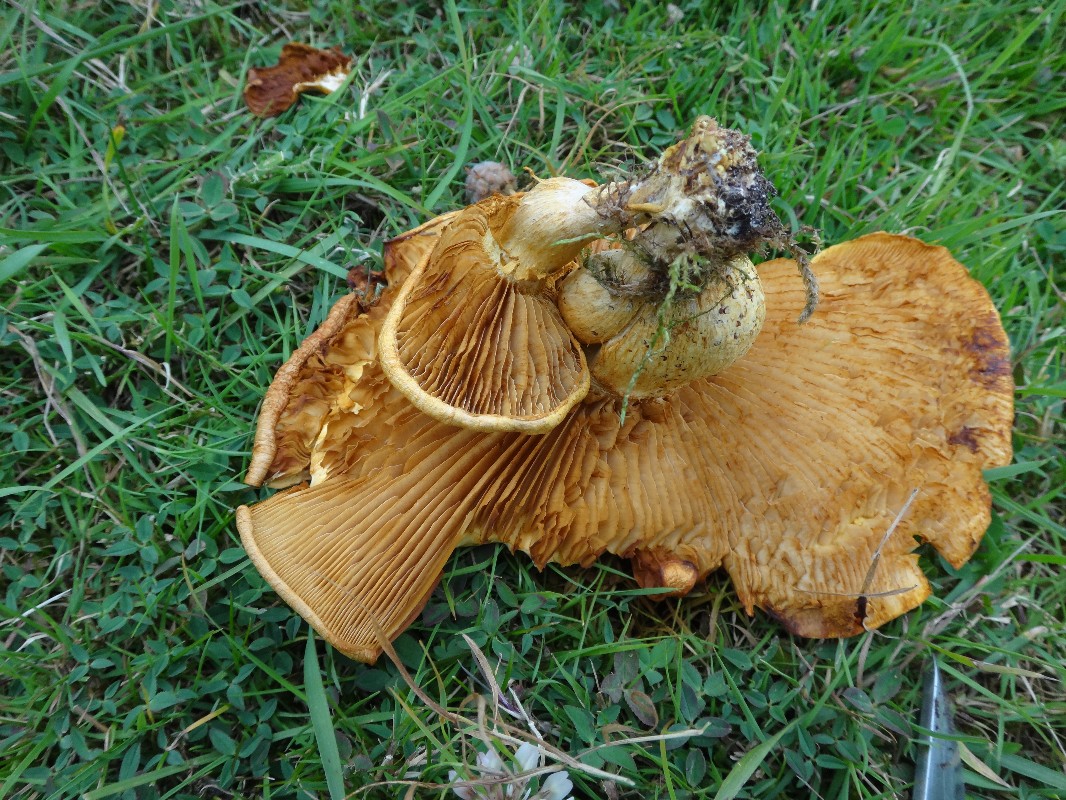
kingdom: Fungi
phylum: Basidiomycota
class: Agaricomycetes
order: Agaricales
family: Hymenogastraceae
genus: Gymnopilus
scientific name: Gymnopilus spectabilis
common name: fibret flammehat
